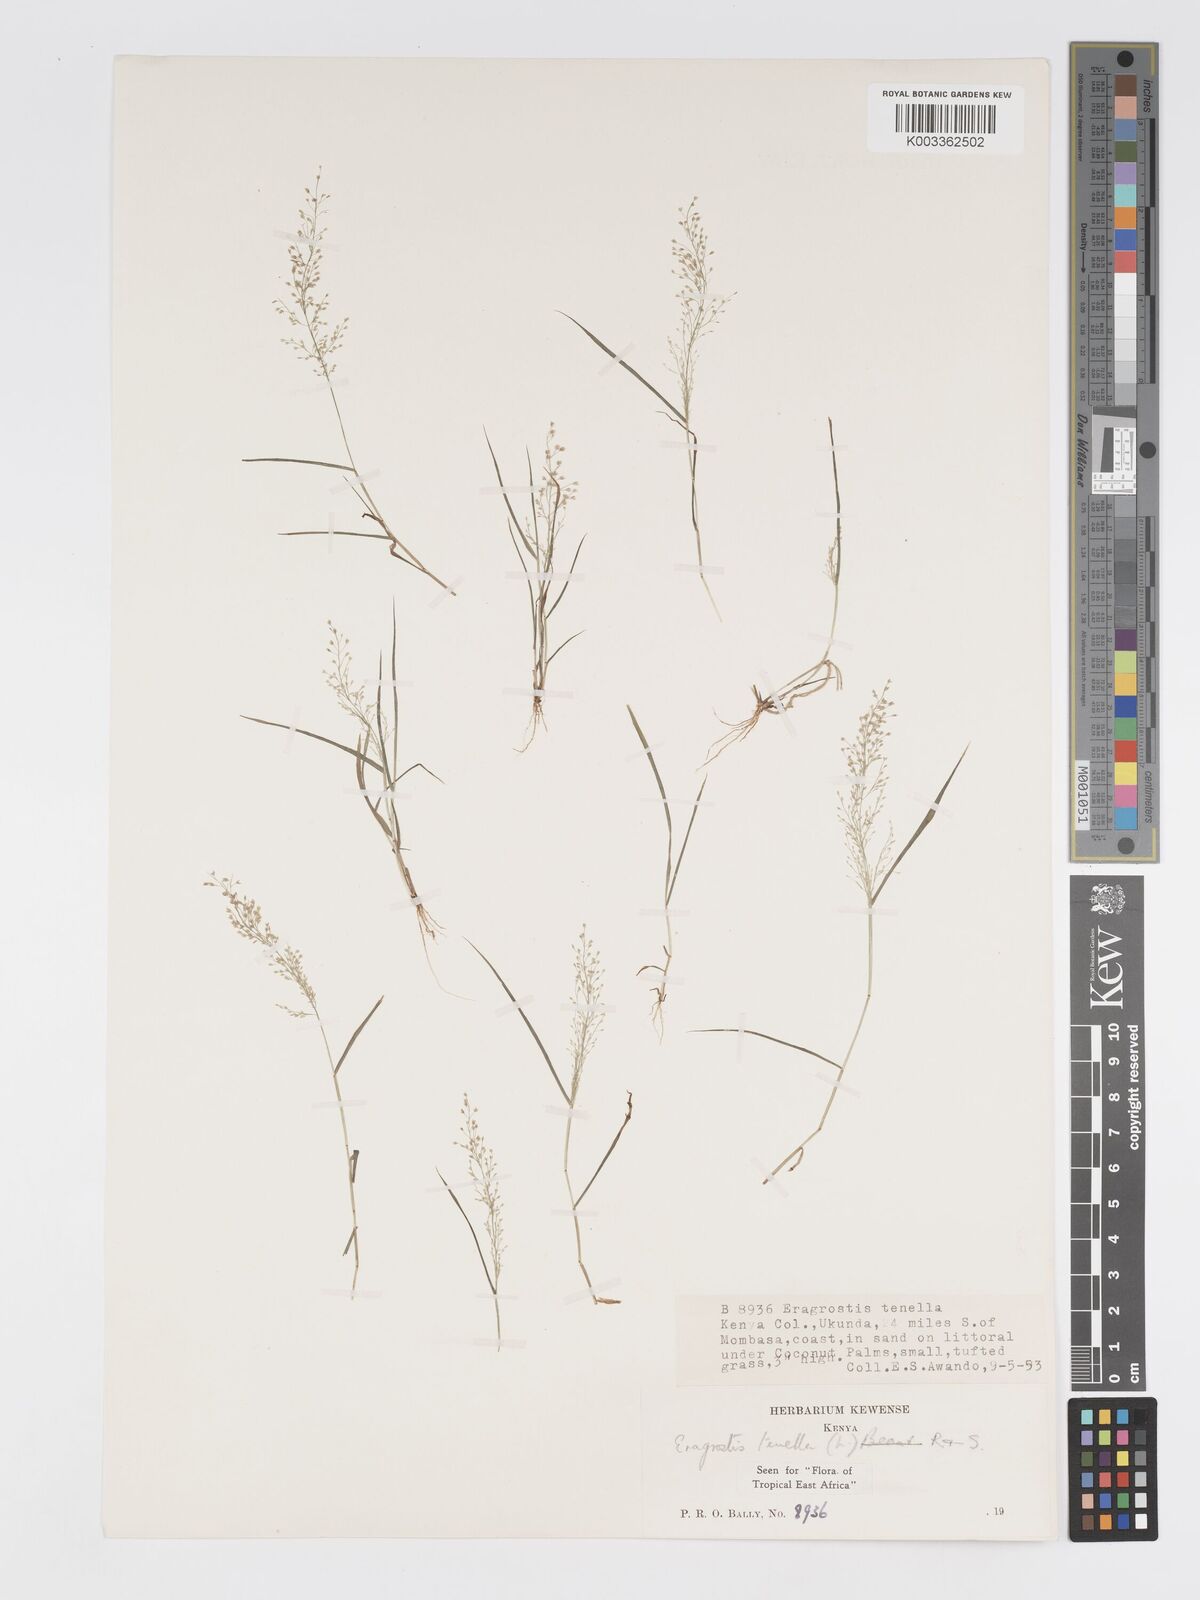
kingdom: Plantae
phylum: Tracheophyta
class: Liliopsida
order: Poales
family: Poaceae
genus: Eragrostis
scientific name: Eragrostis tenella
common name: Japanese lovegrass
